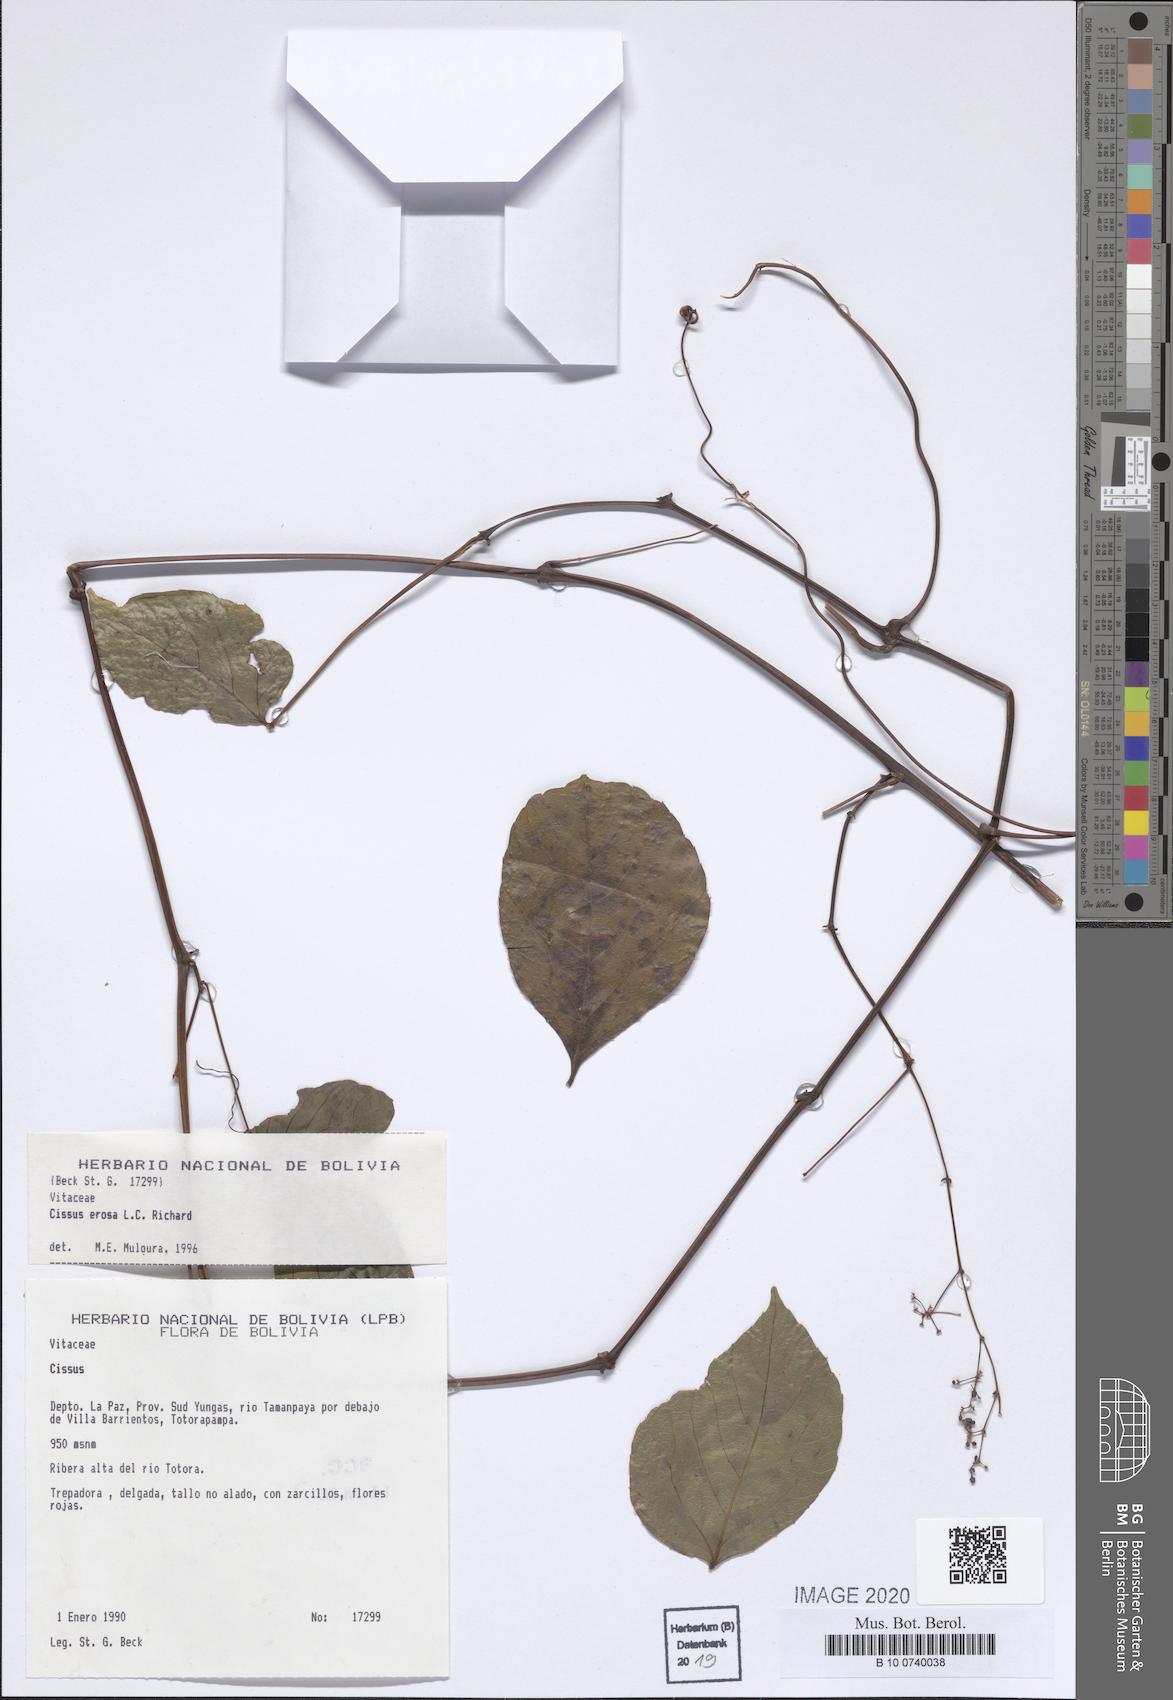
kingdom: Plantae
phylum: Tracheophyta
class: Magnoliopsida
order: Vitales
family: Vitaceae
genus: Cissus
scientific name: Cissus erosa
